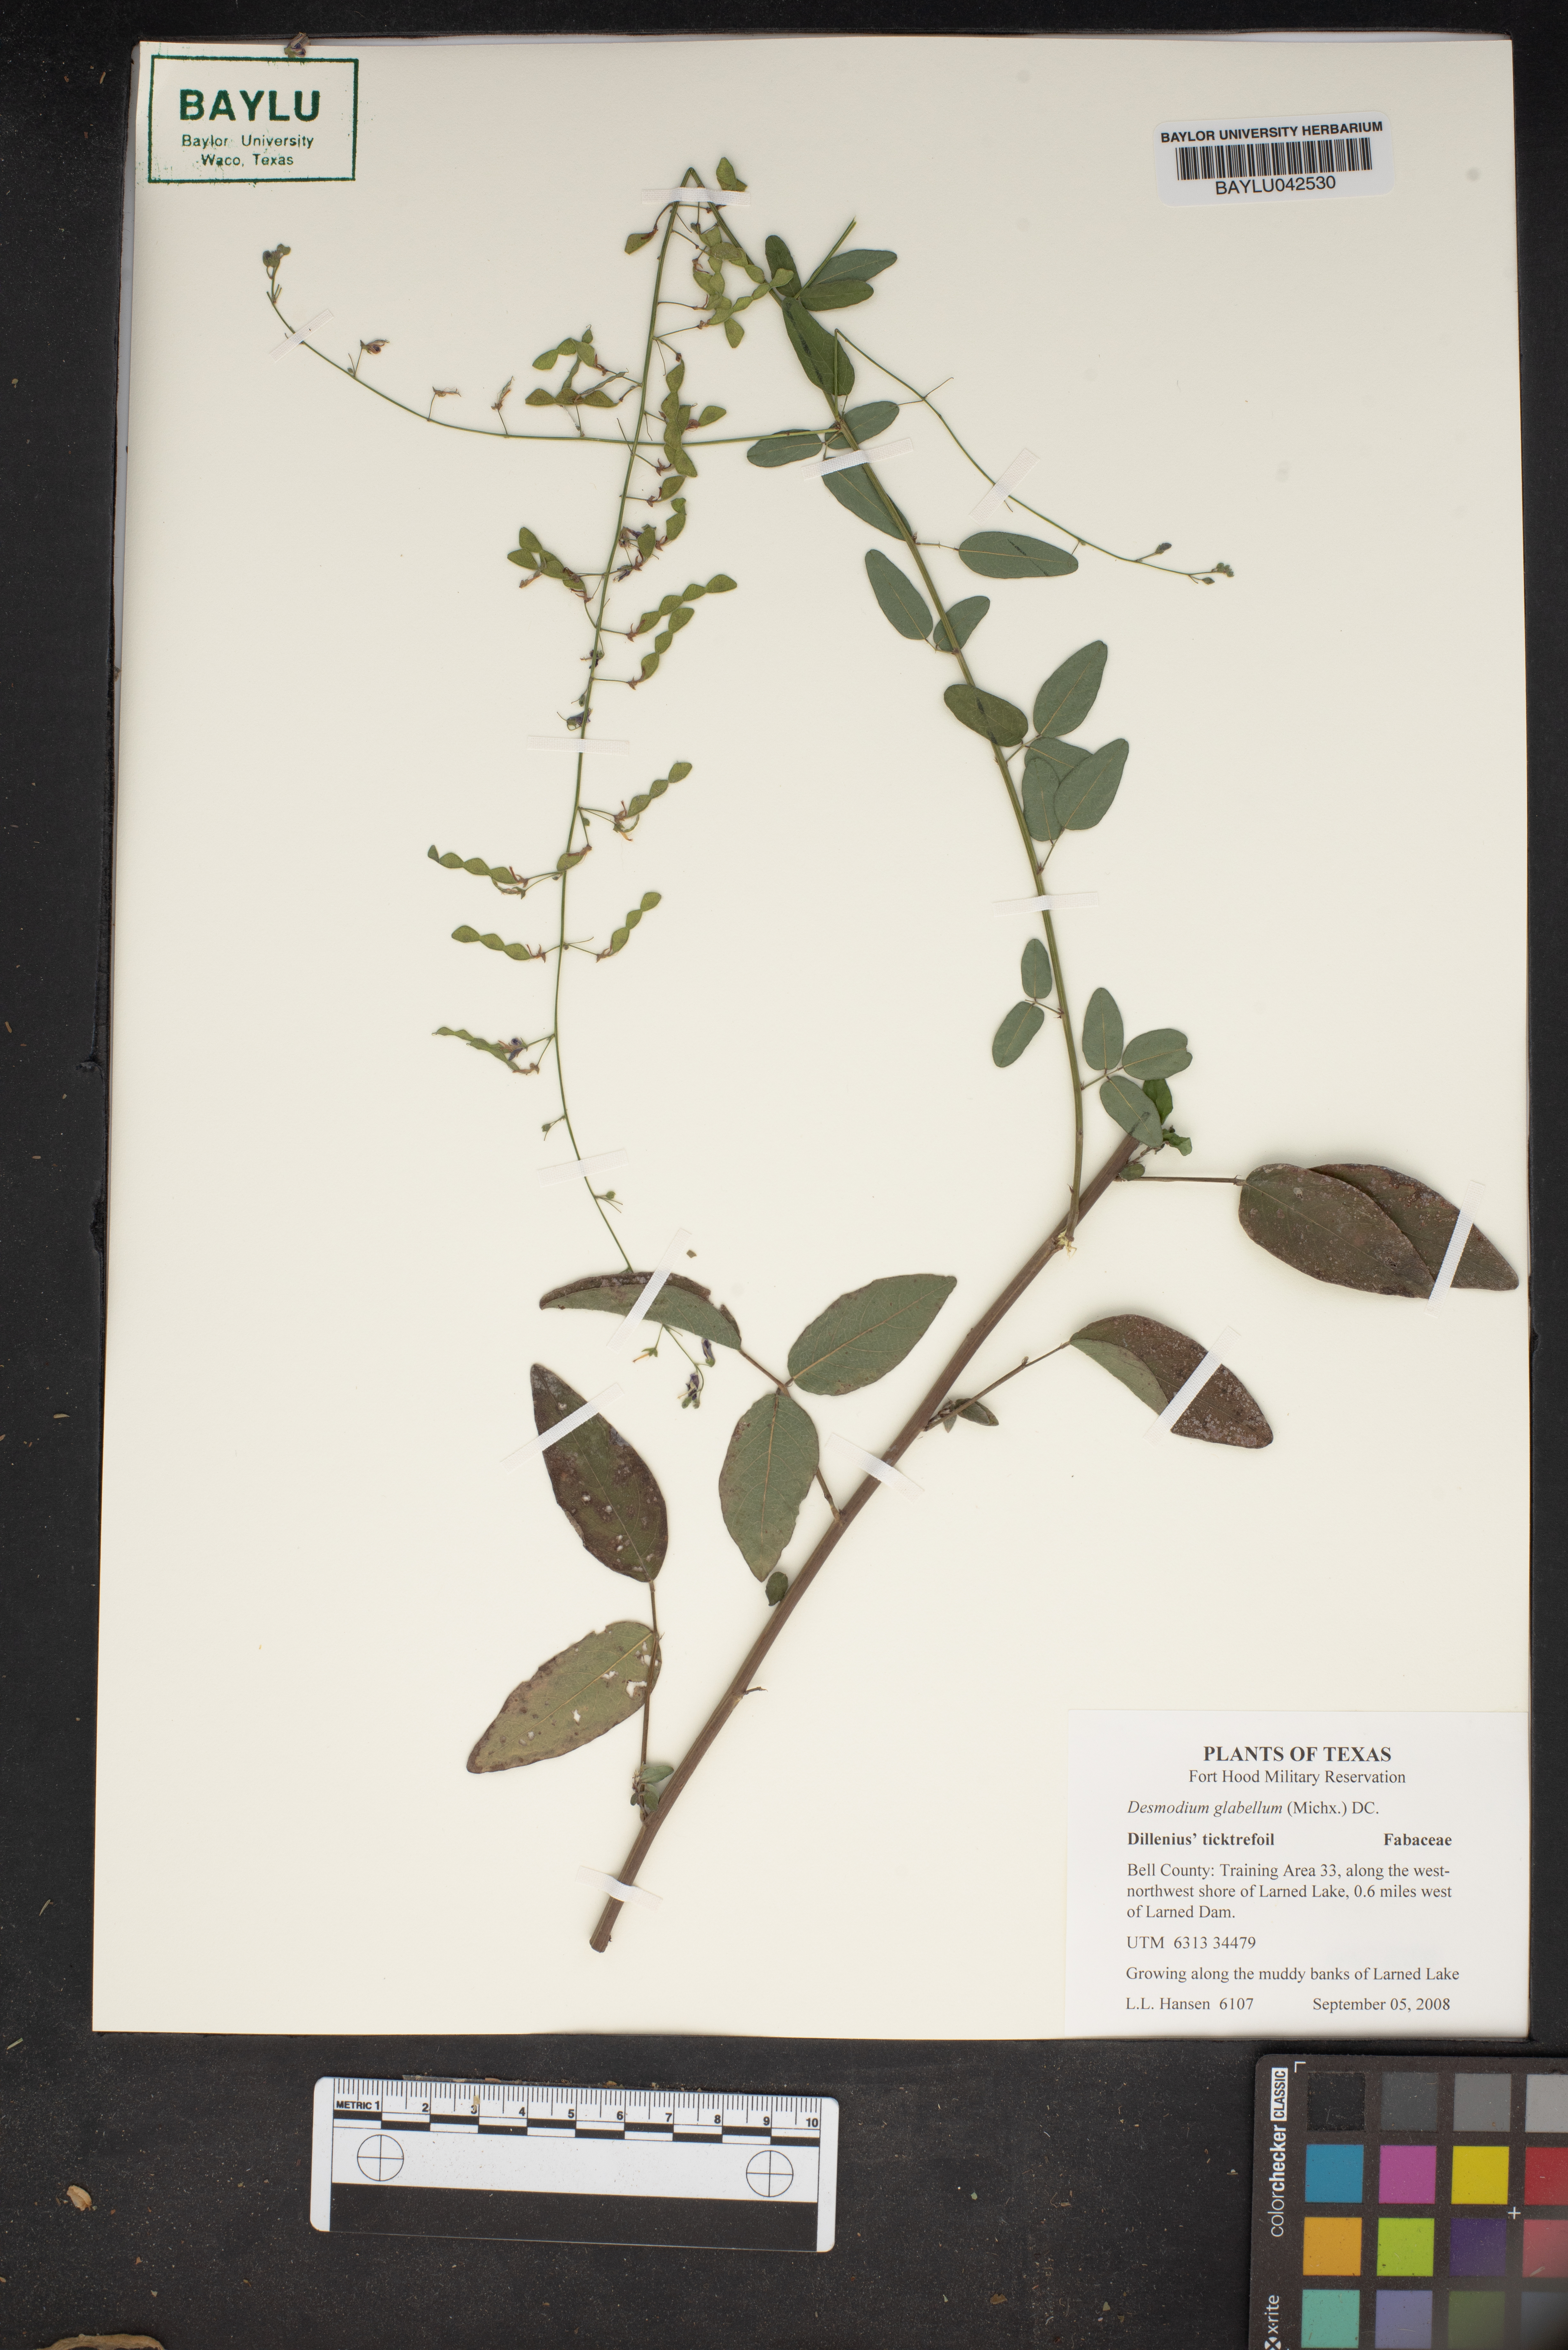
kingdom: Plantae
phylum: Tracheophyta
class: Magnoliopsida
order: Fabales
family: Fabaceae
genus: Desmodium
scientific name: Desmodium glabellum
